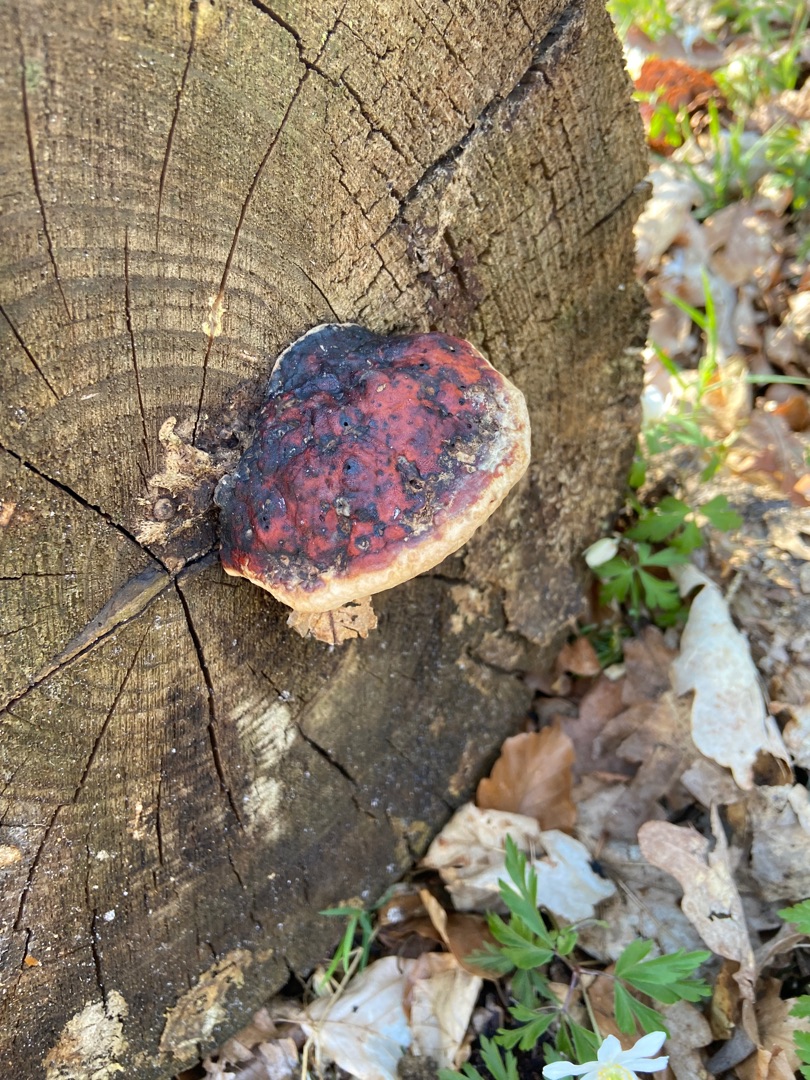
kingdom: Fungi
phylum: Basidiomycota
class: Agaricomycetes
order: Polyporales
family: Fomitopsidaceae
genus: Fomitopsis
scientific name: Fomitopsis pinicola
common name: Randbæltet hovporesvamp
